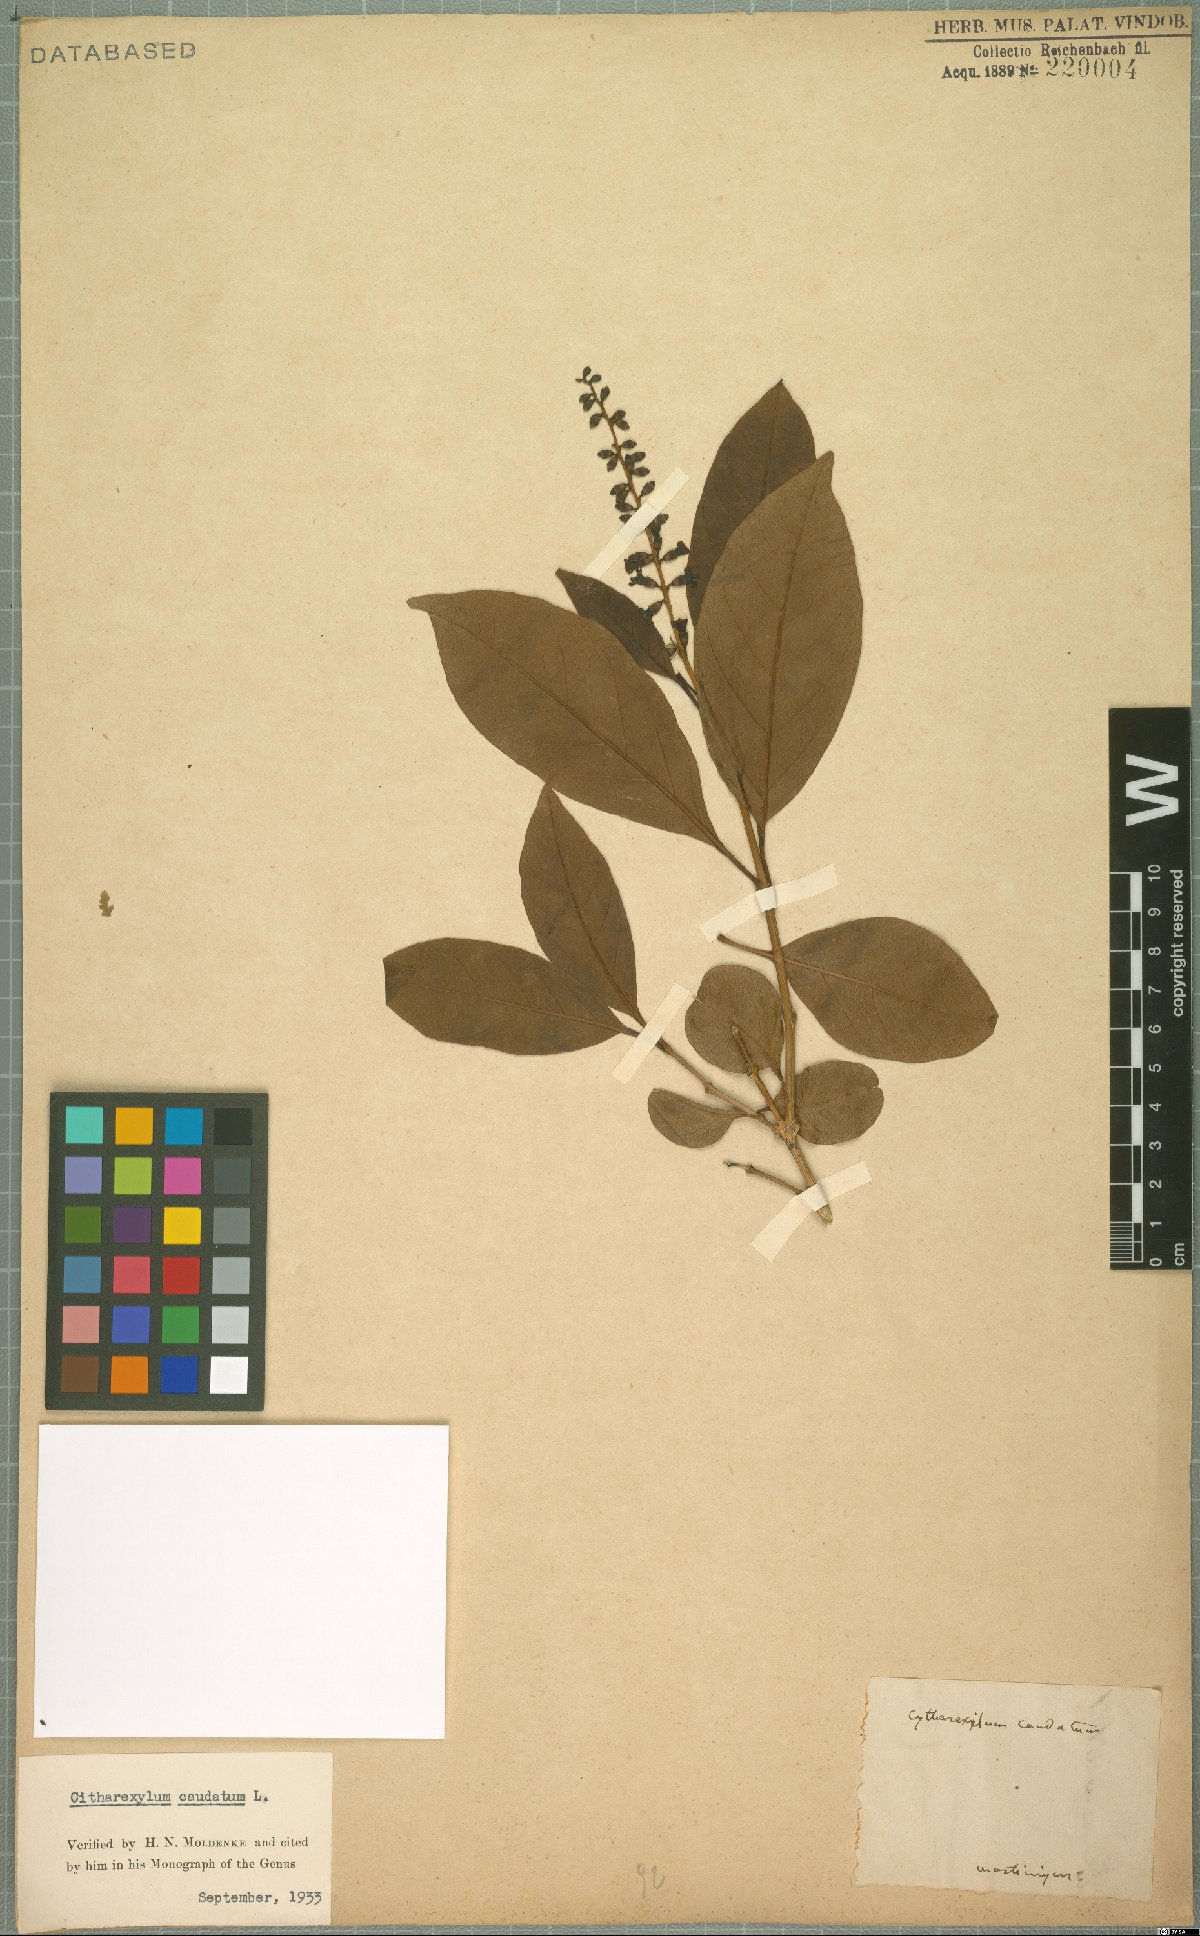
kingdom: Plantae
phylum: Tracheophyta
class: Magnoliopsida
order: Lamiales
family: Verbenaceae
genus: Citharexylum
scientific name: Citharexylum caudatum
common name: Fiddlewood
